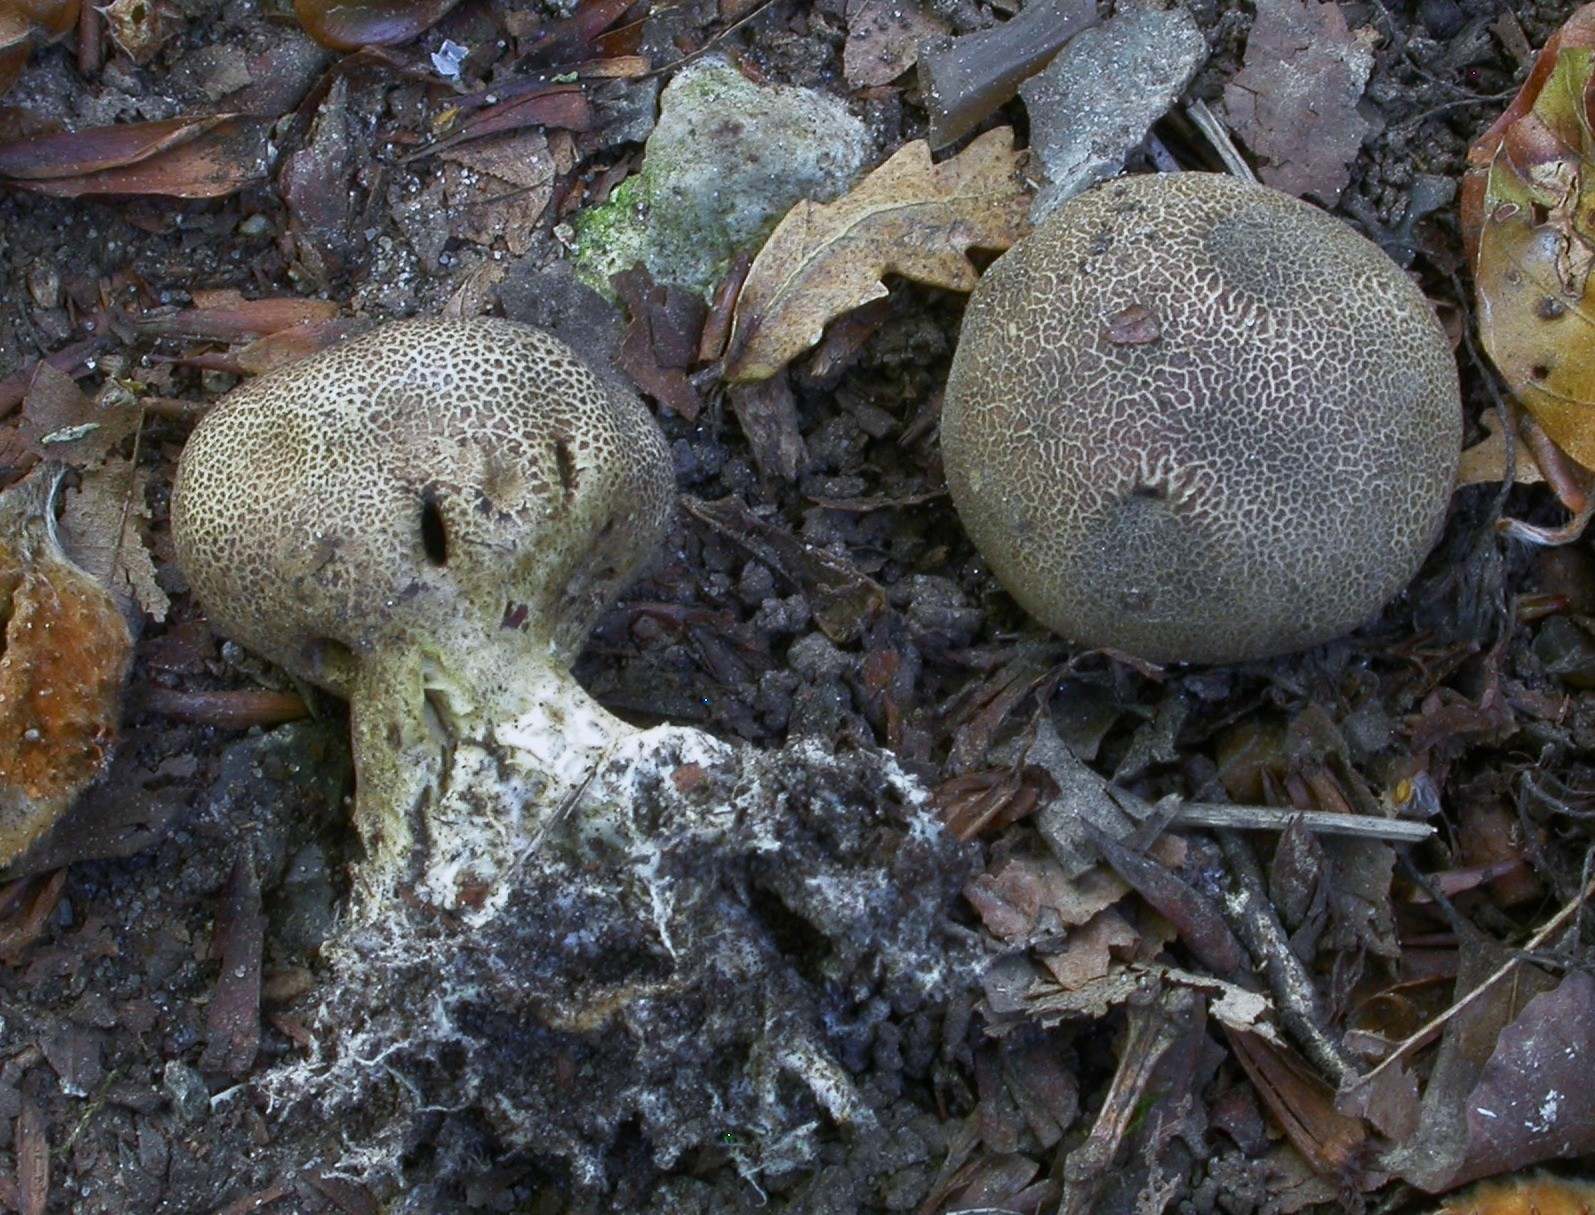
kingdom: Fungi
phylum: Basidiomycota
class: Agaricomycetes
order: Boletales
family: Sclerodermataceae
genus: Scleroderma
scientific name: Scleroderma verrucosum
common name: stilket bruskbold
